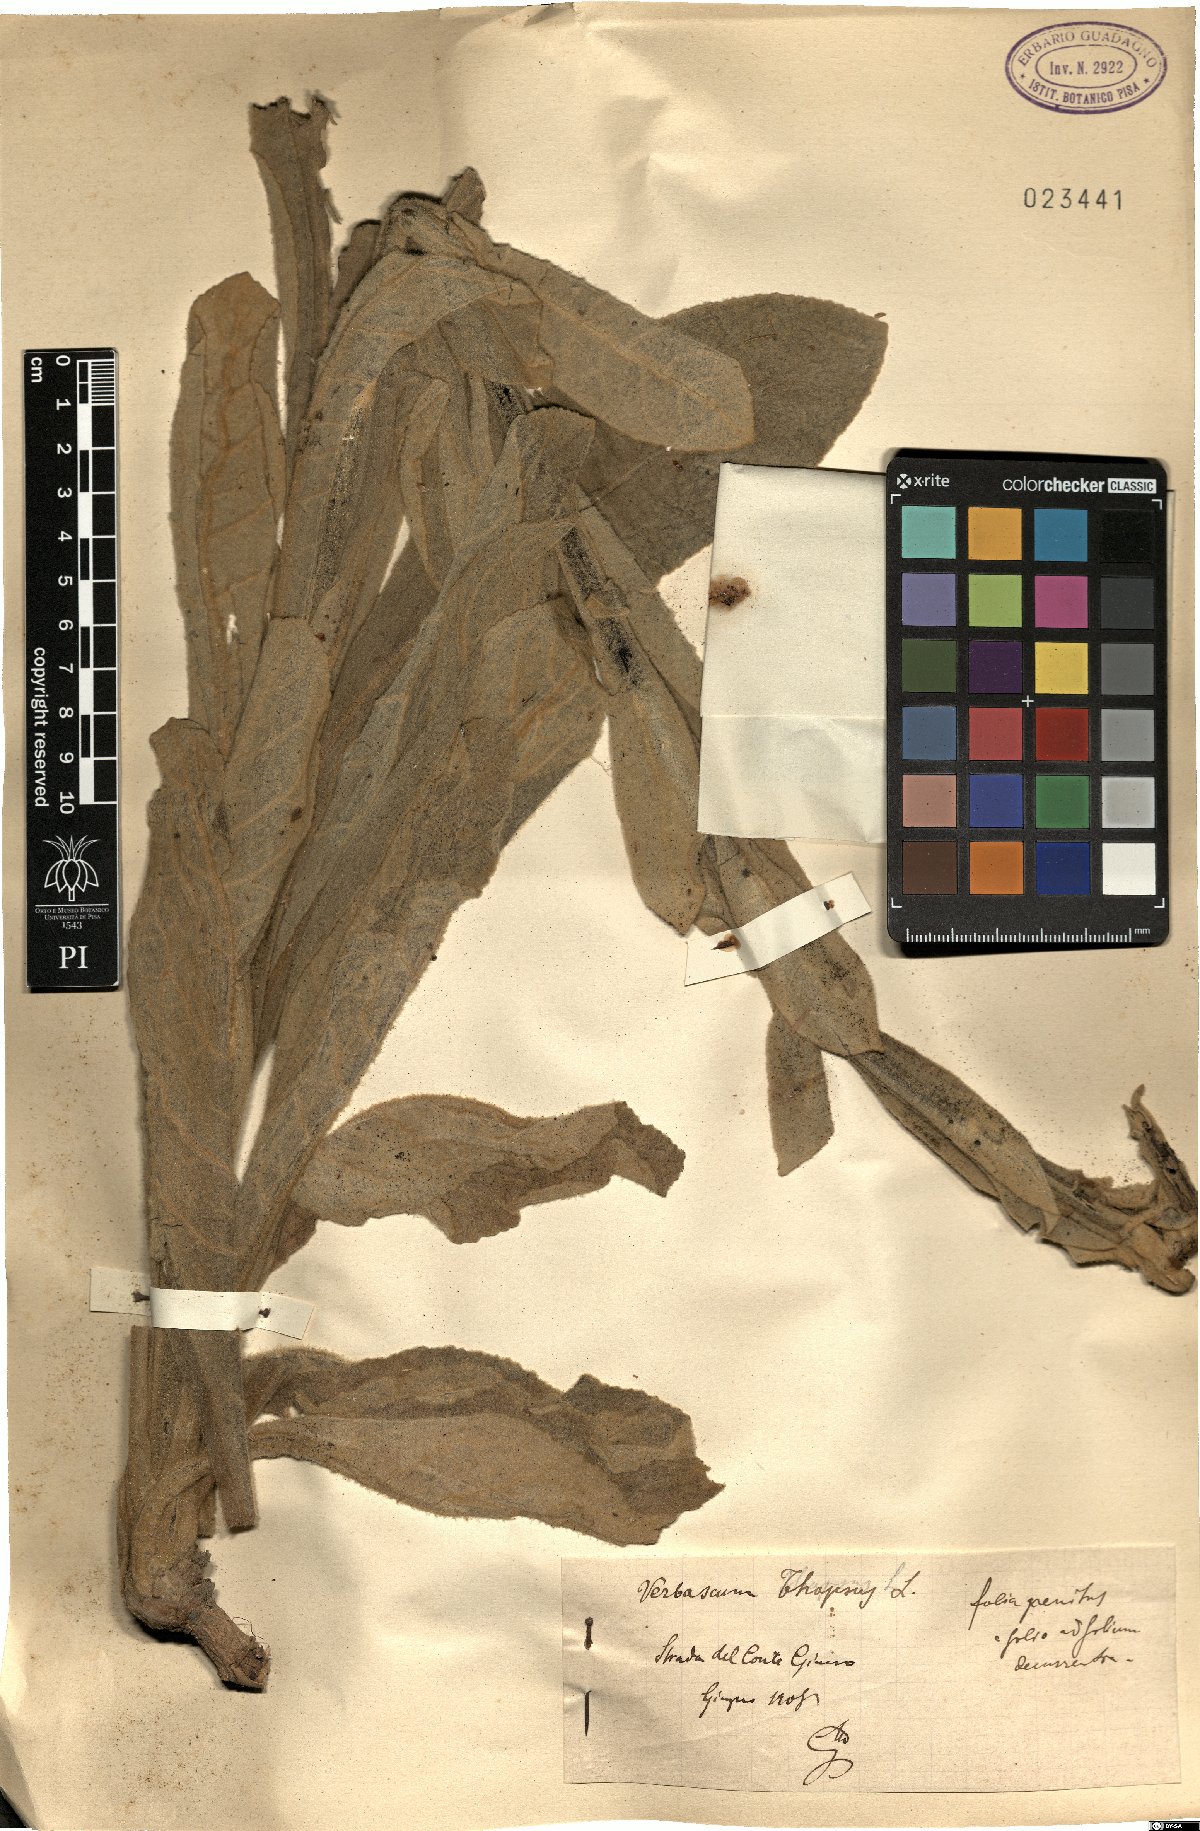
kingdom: Plantae
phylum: Tracheophyta
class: Magnoliopsida
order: Lamiales
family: Scrophulariaceae
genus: Verbascum
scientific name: Verbascum thapsus
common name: Common mullein
